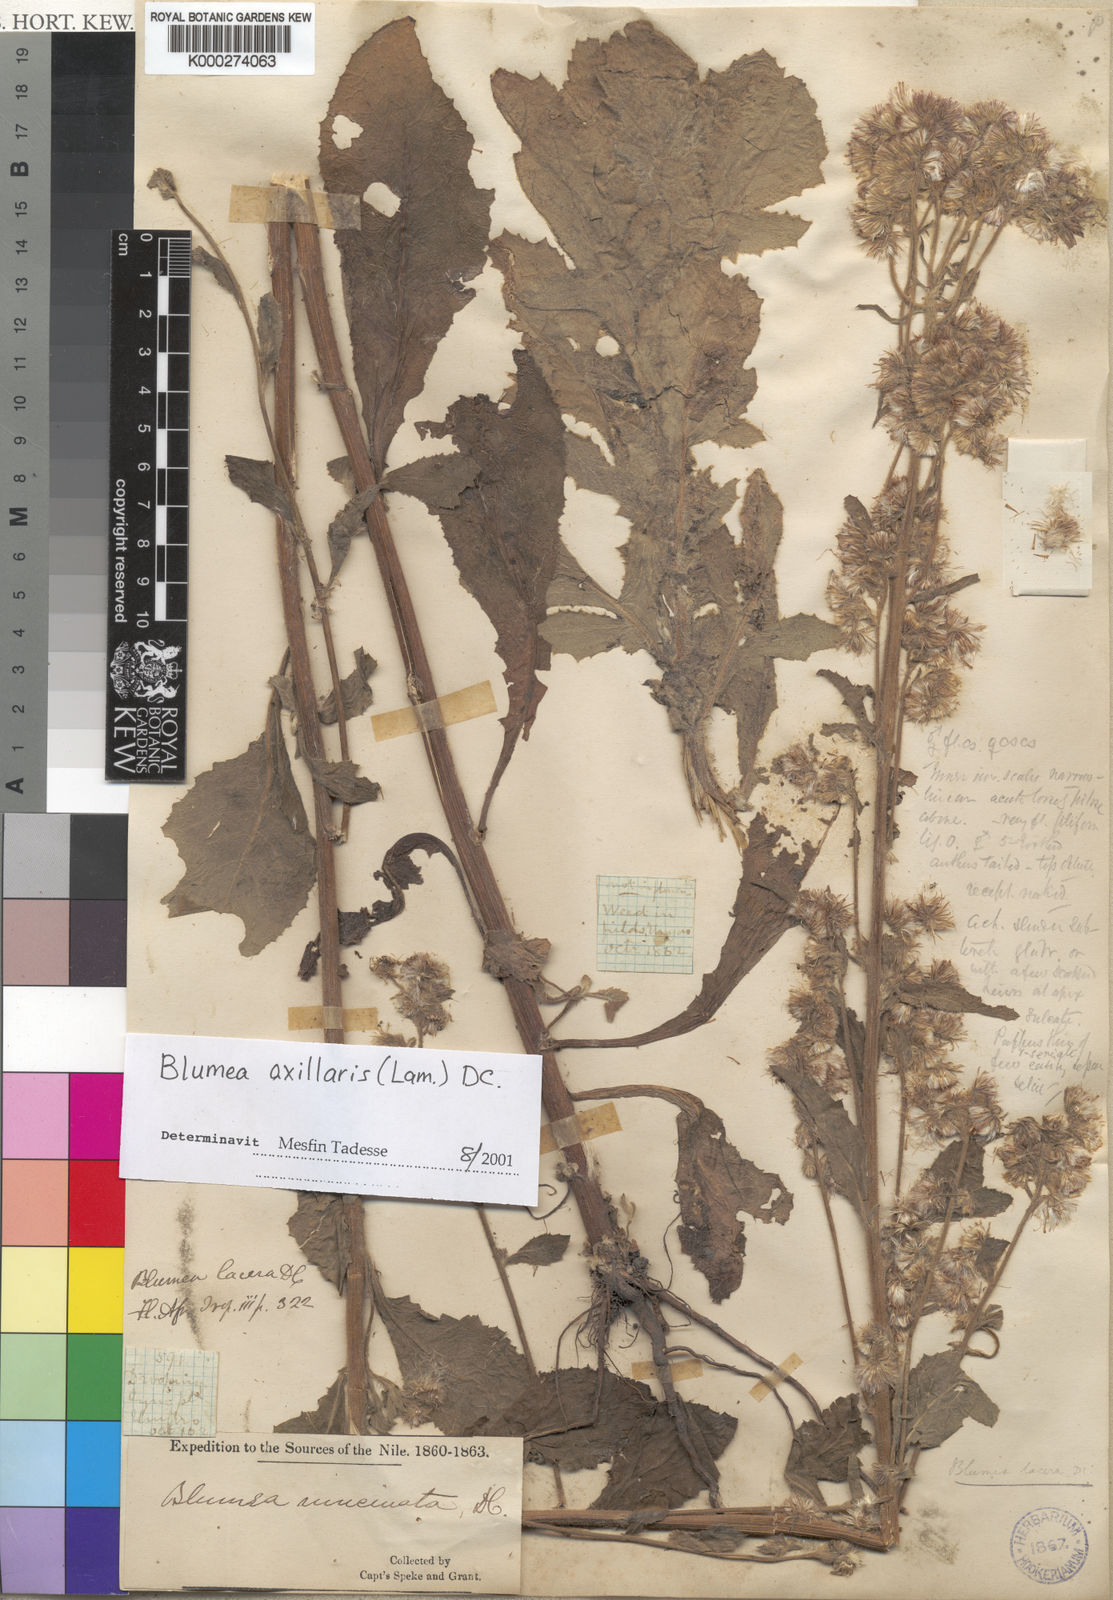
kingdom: Plantae
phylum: Tracheophyta
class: Magnoliopsida
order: Asterales
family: Asteraceae
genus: Blumea
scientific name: Blumea axillaris
